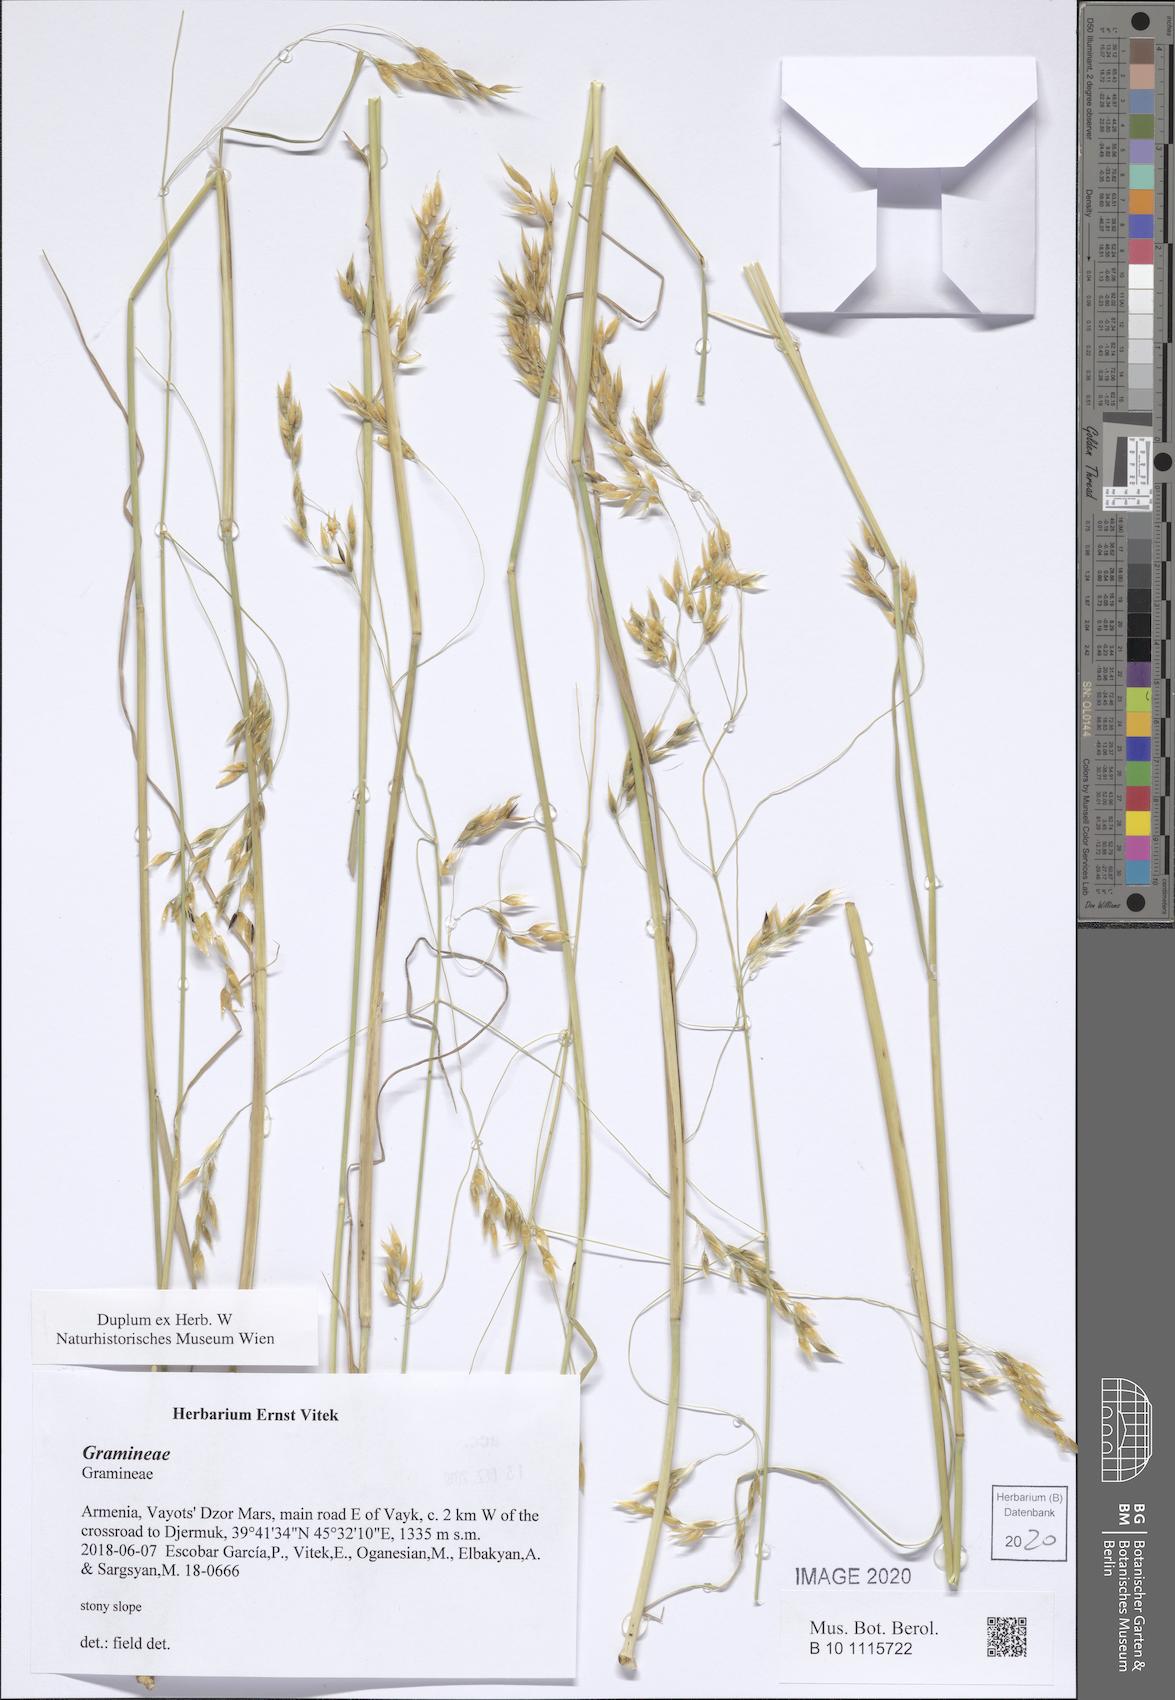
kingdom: Plantae
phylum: Tracheophyta
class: Liliopsida
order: Poales
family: Poaceae
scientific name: Poaceae
